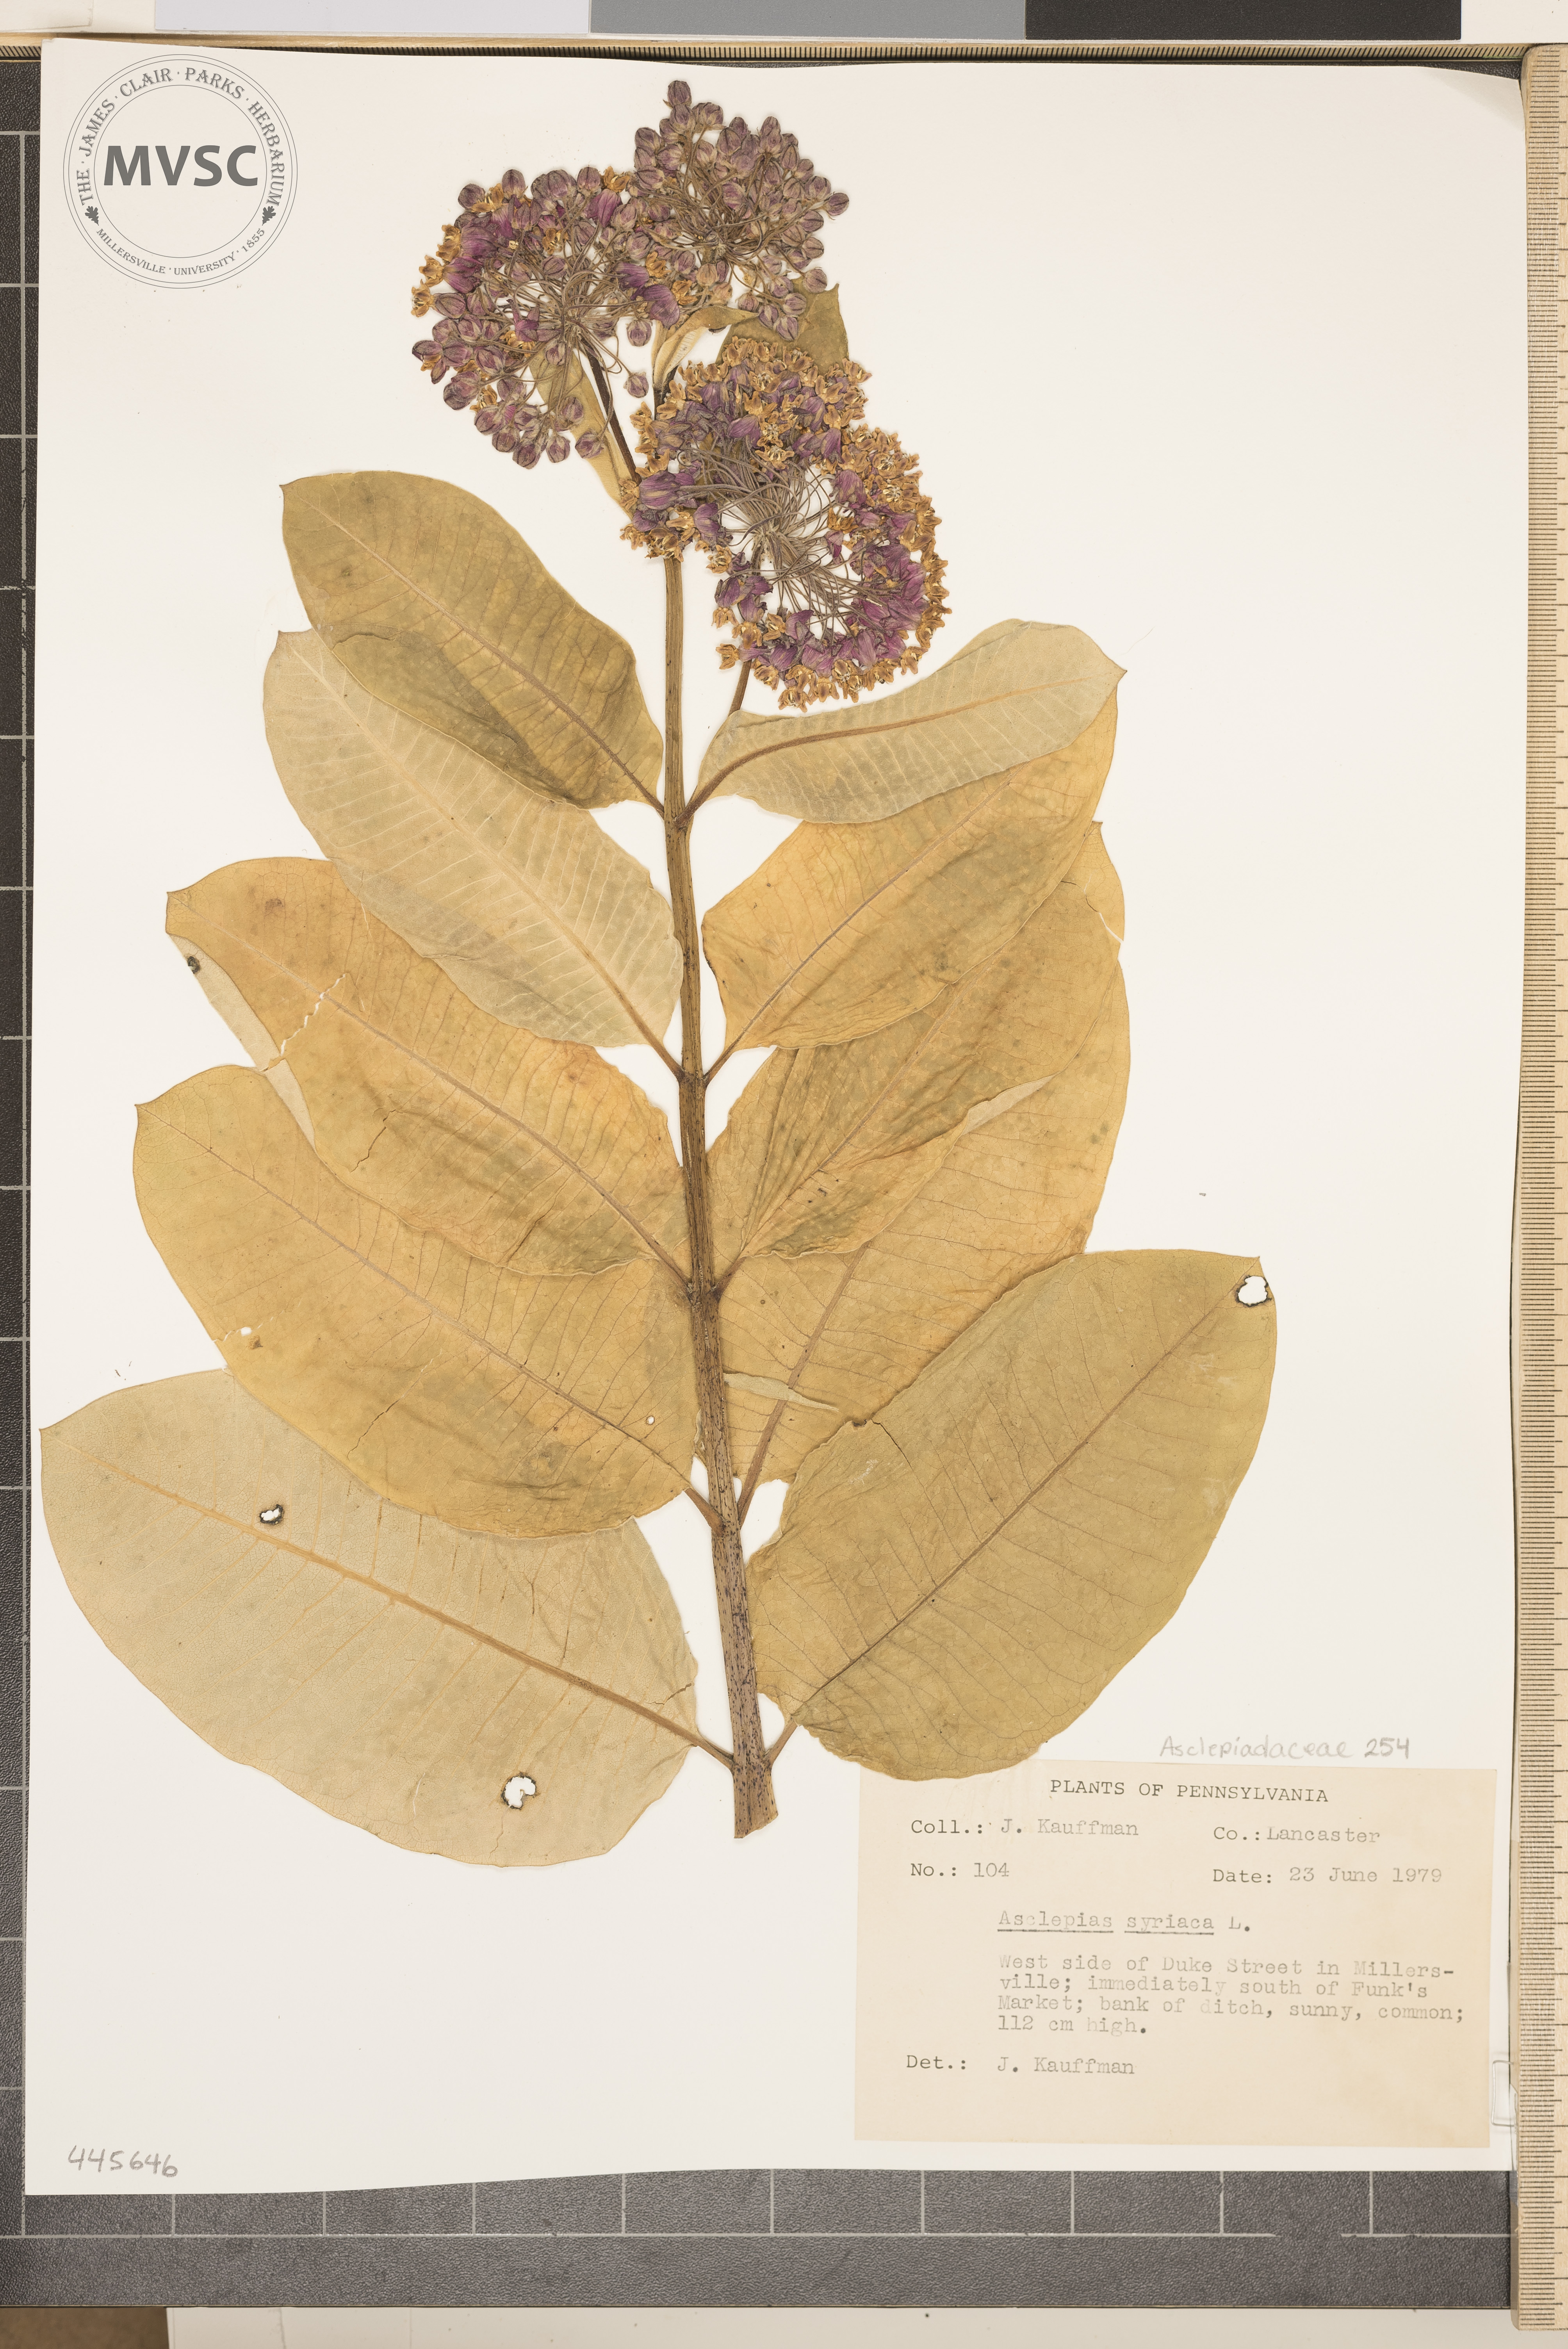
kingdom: Plantae
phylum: Tracheophyta
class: Magnoliopsida
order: Gentianales
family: Apocynaceae
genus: Asclepias
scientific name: Asclepias syriaca
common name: Common milkweed
